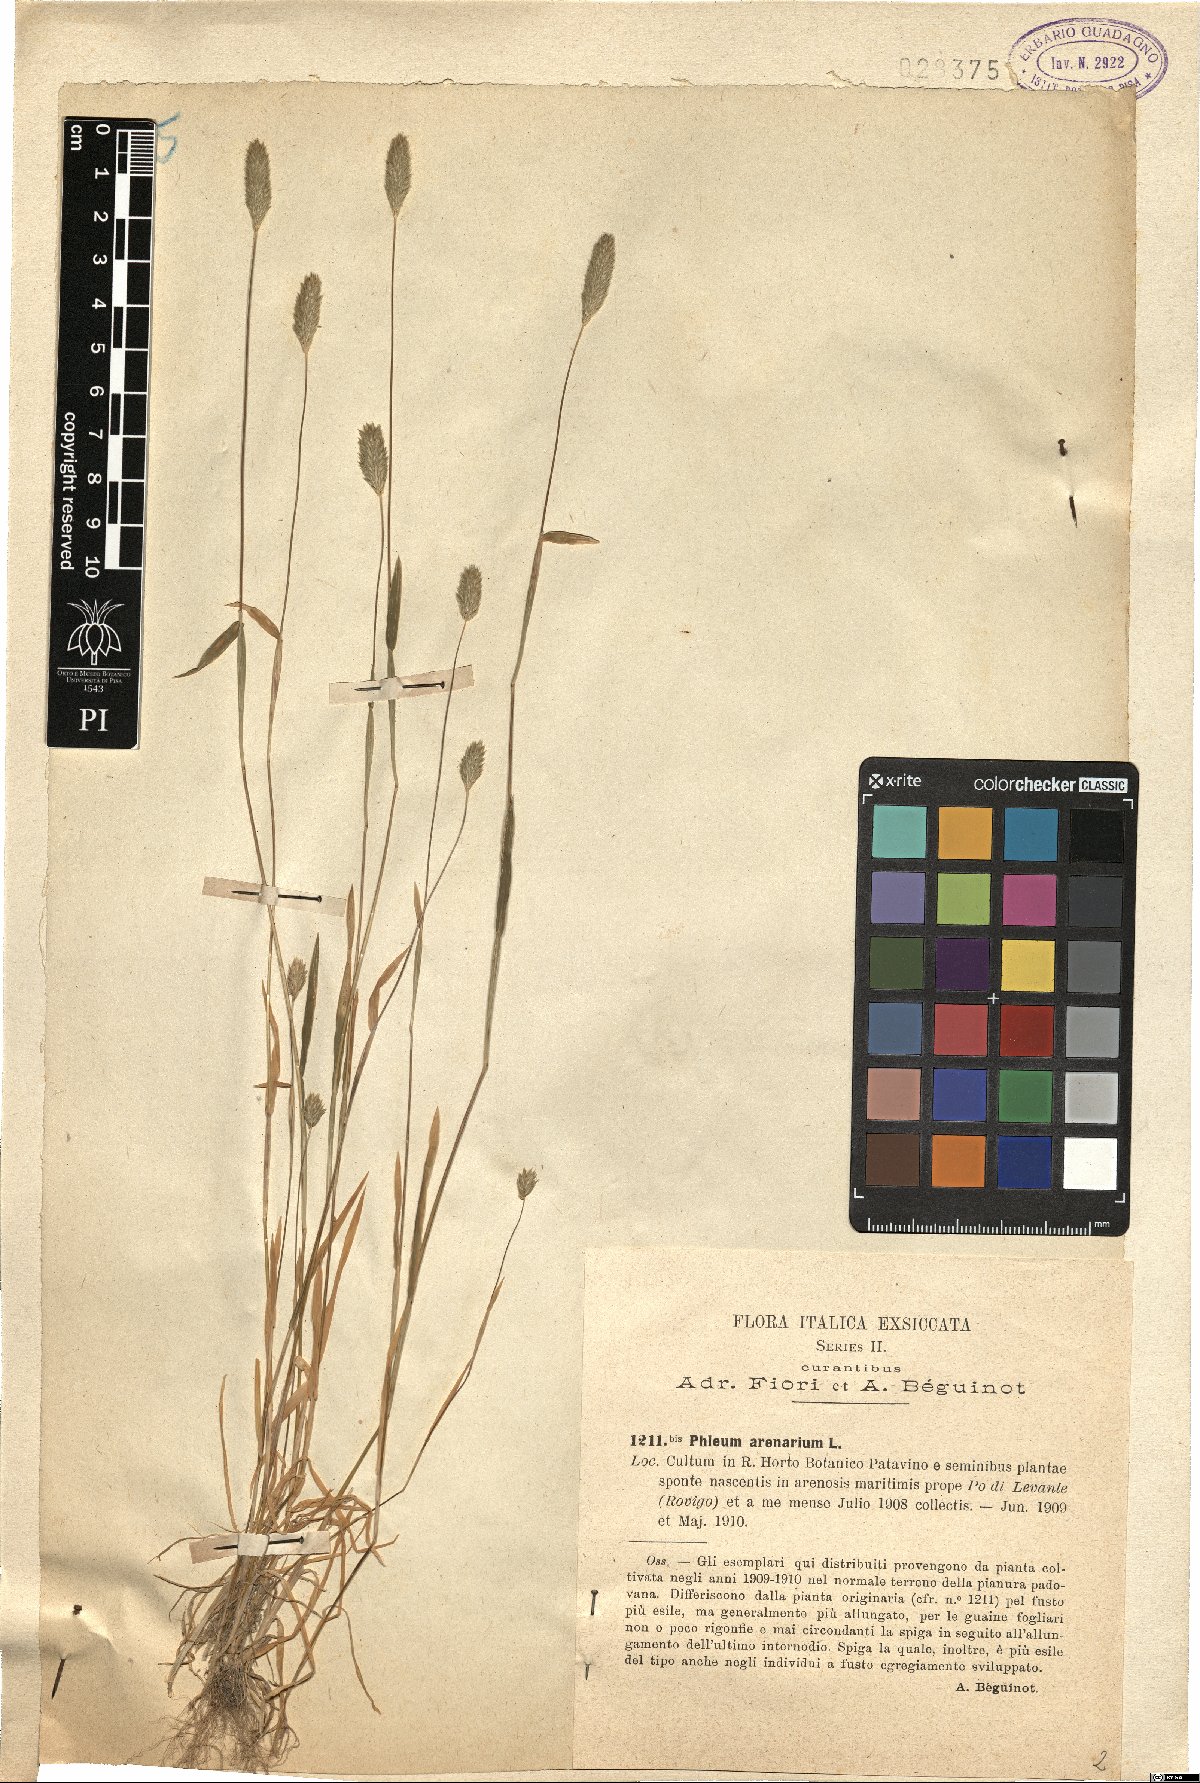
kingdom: Plantae
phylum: Tracheophyta
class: Liliopsida
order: Poales
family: Poaceae
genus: Phleum
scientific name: Phleum arenarium
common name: Sand cat's-tail
